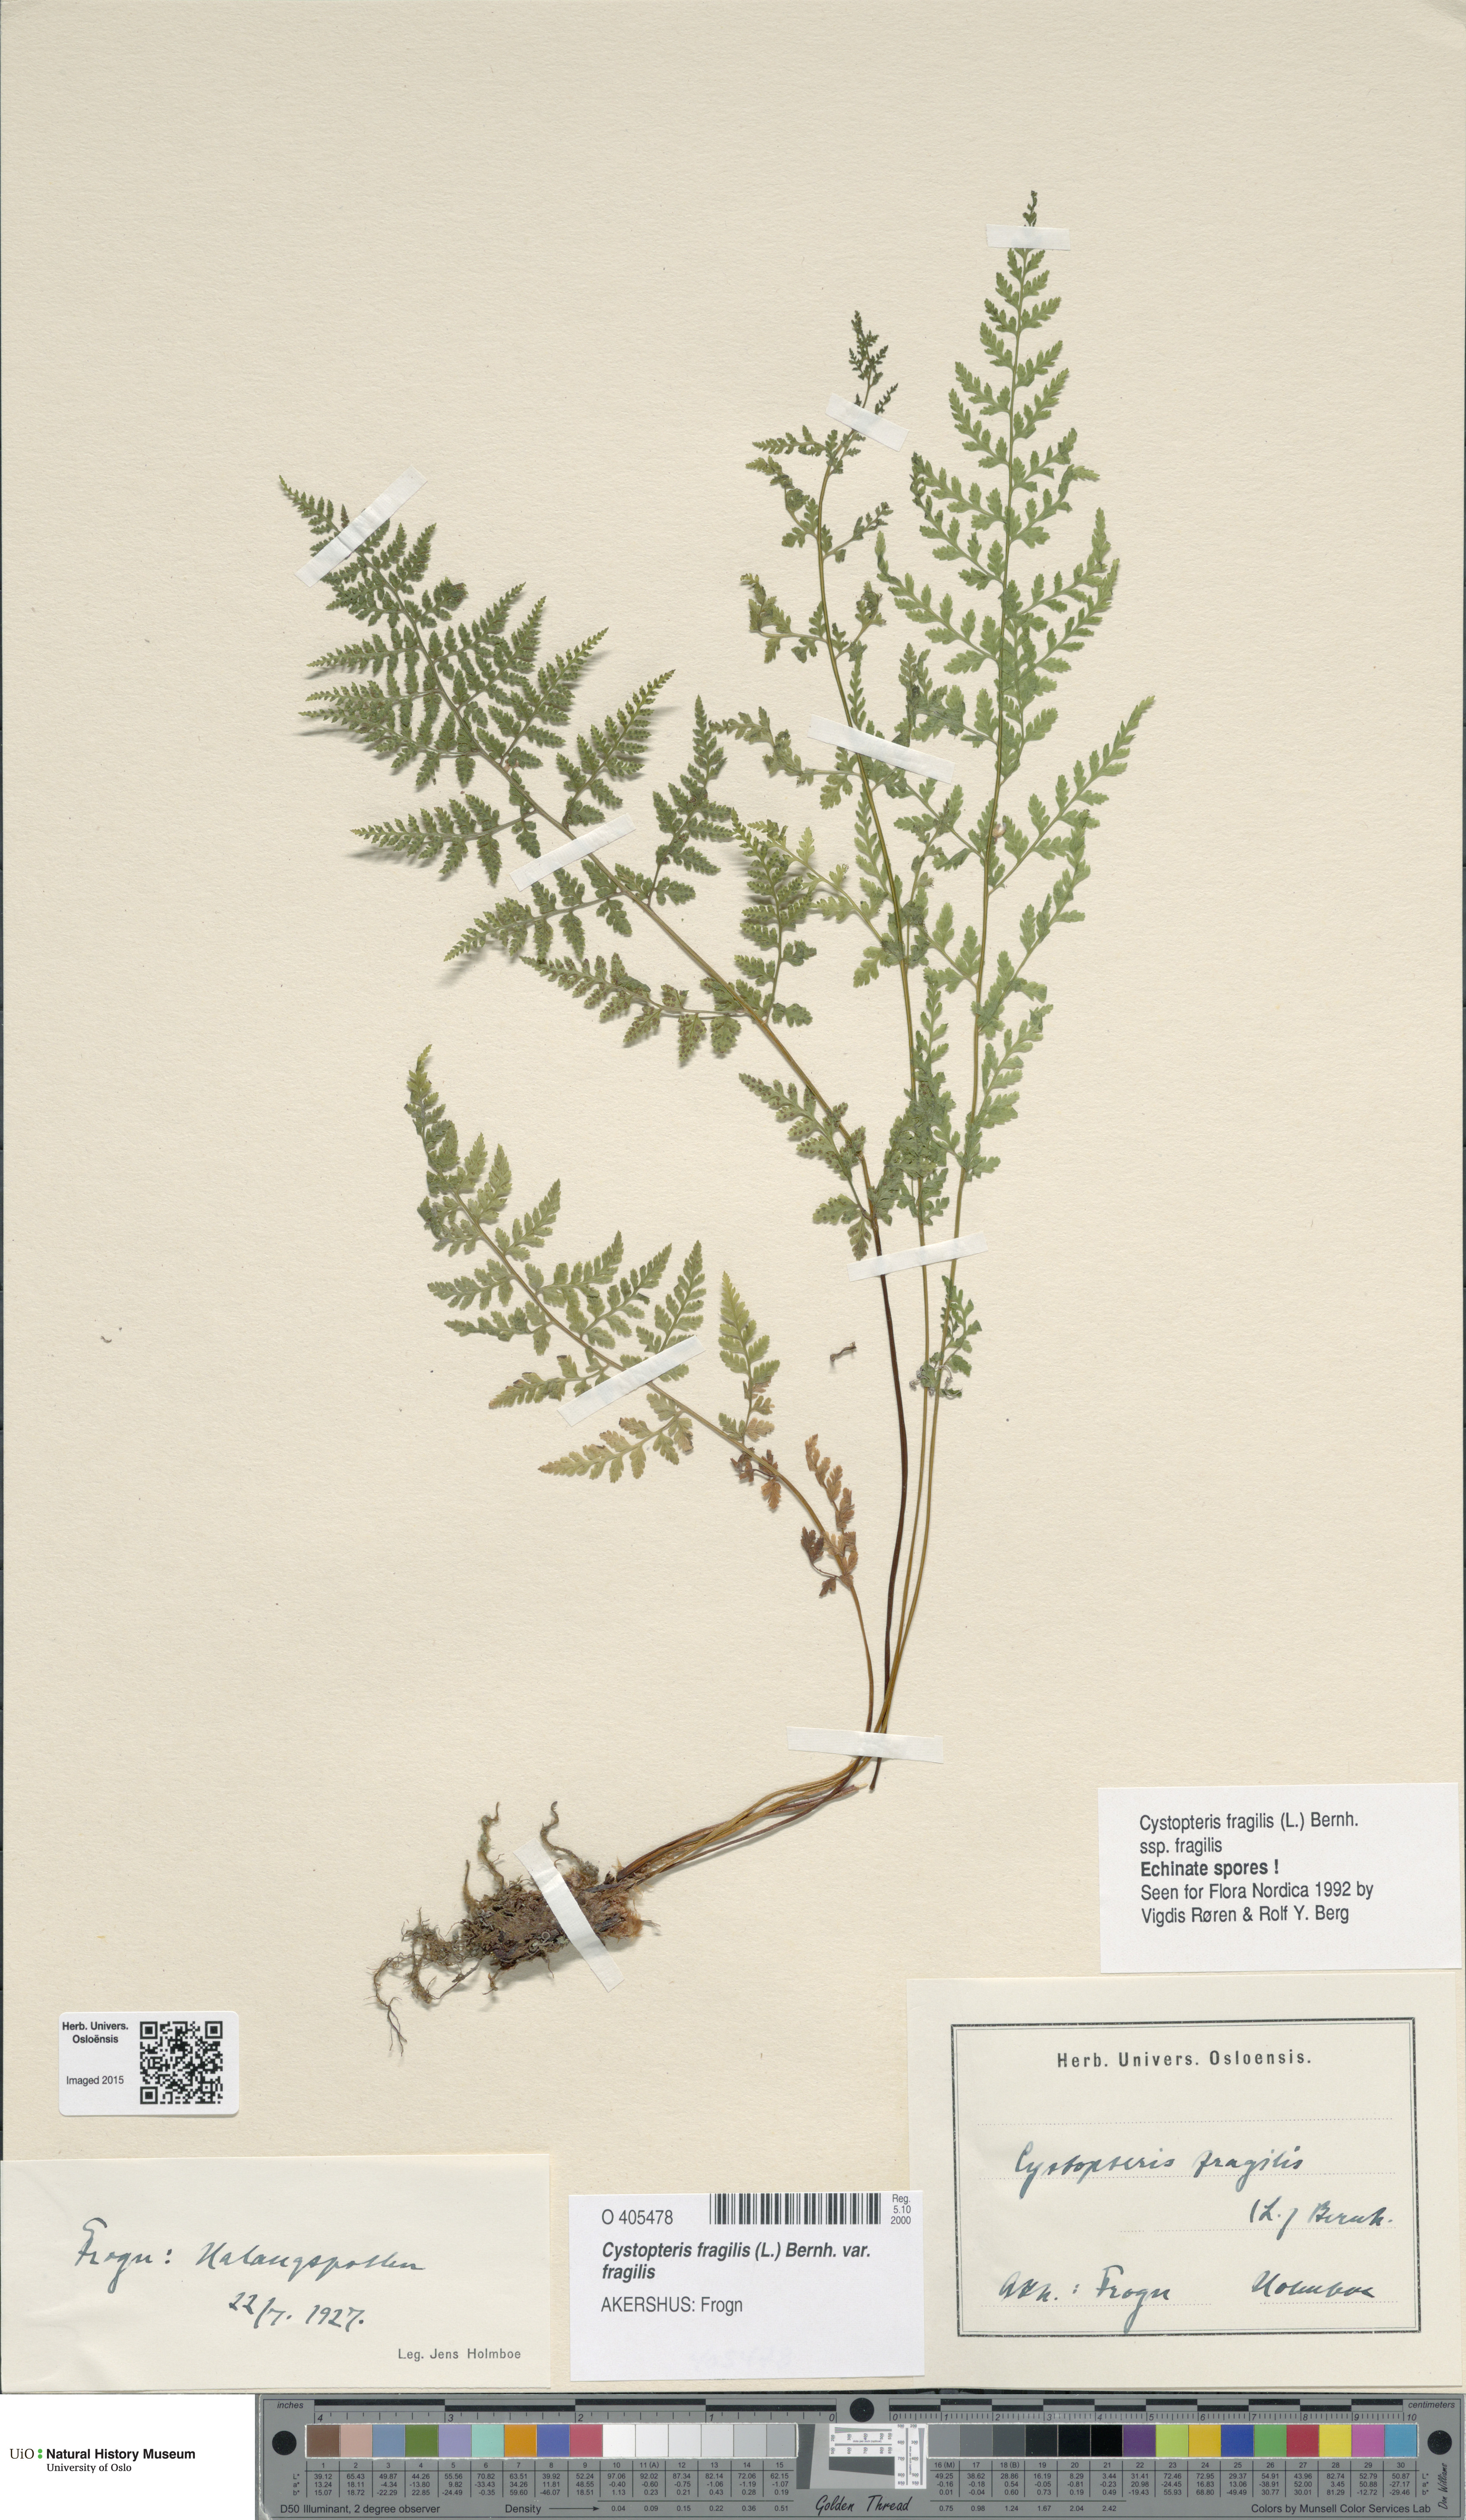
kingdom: Plantae
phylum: Tracheophyta
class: Polypodiopsida
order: Polypodiales
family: Cystopteridaceae
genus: Cystopteris
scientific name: Cystopteris fragilis
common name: Brittle bladder fern
